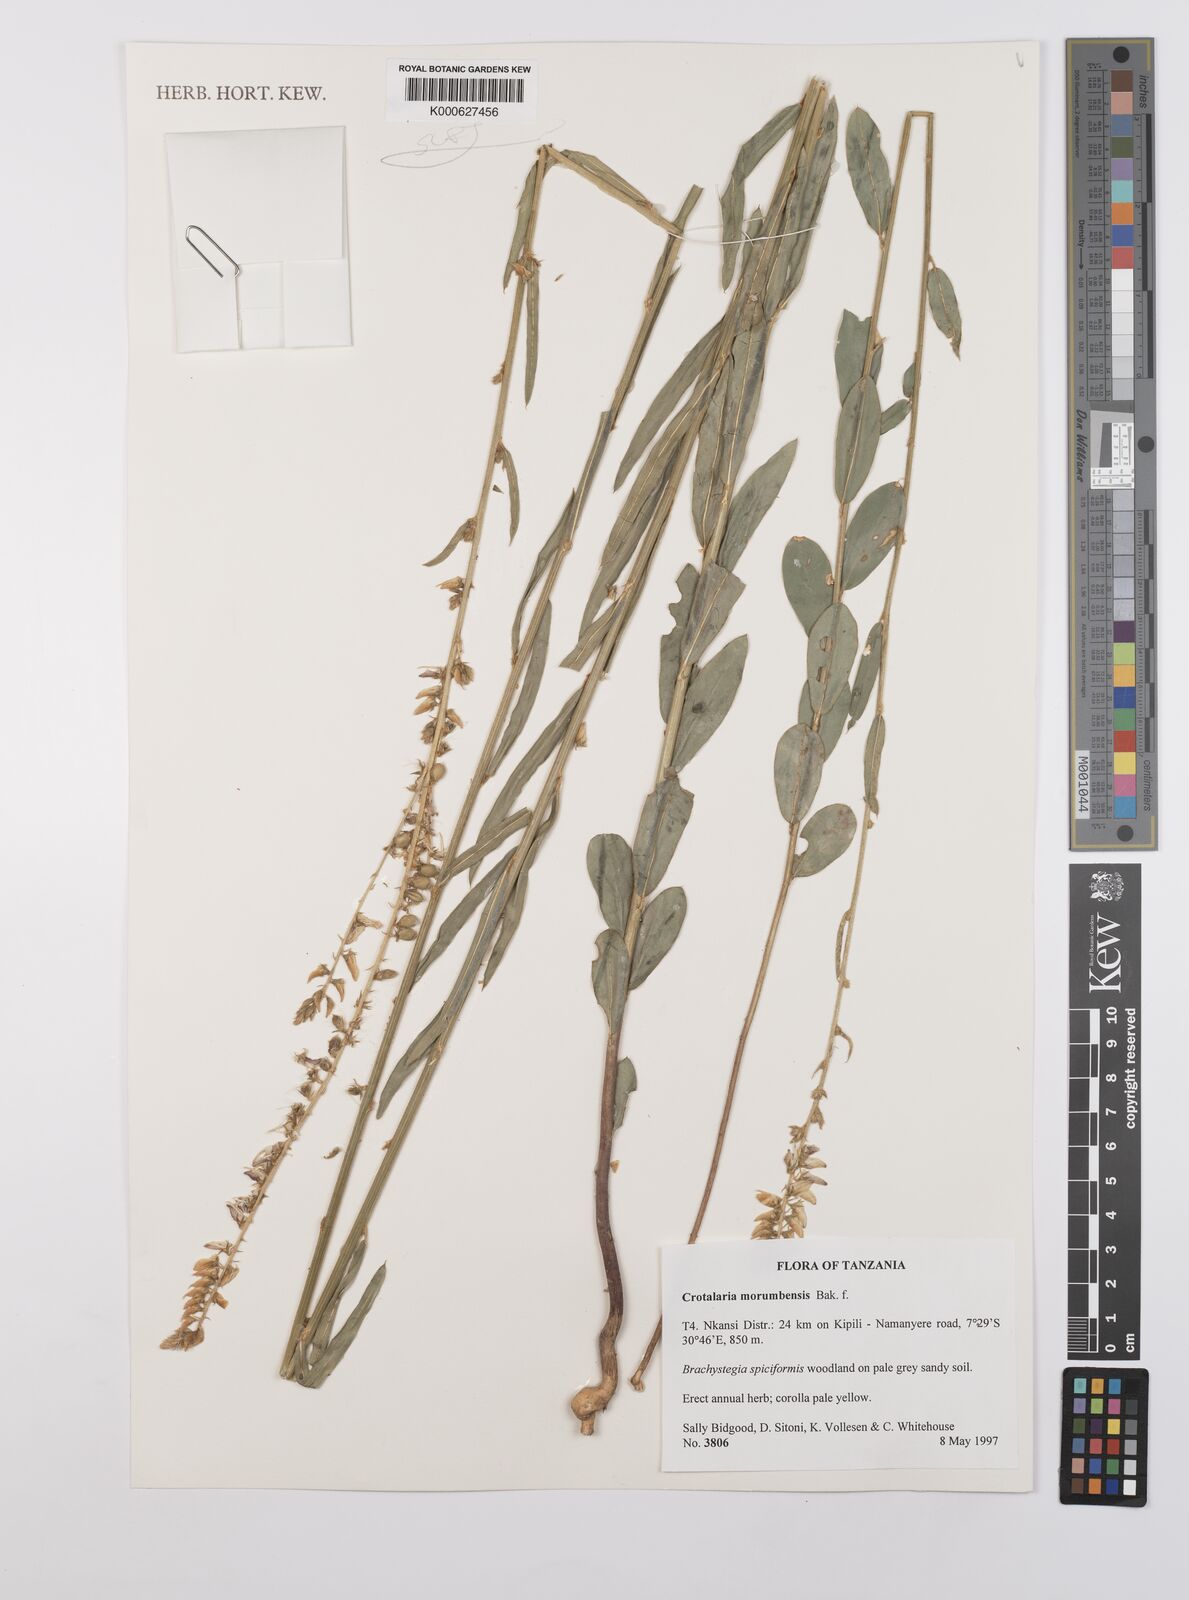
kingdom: Plantae
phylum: Tracheophyta
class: Magnoliopsida
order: Fabales
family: Fabaceae
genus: Crotalaria
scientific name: Crotalaria morumbensis
